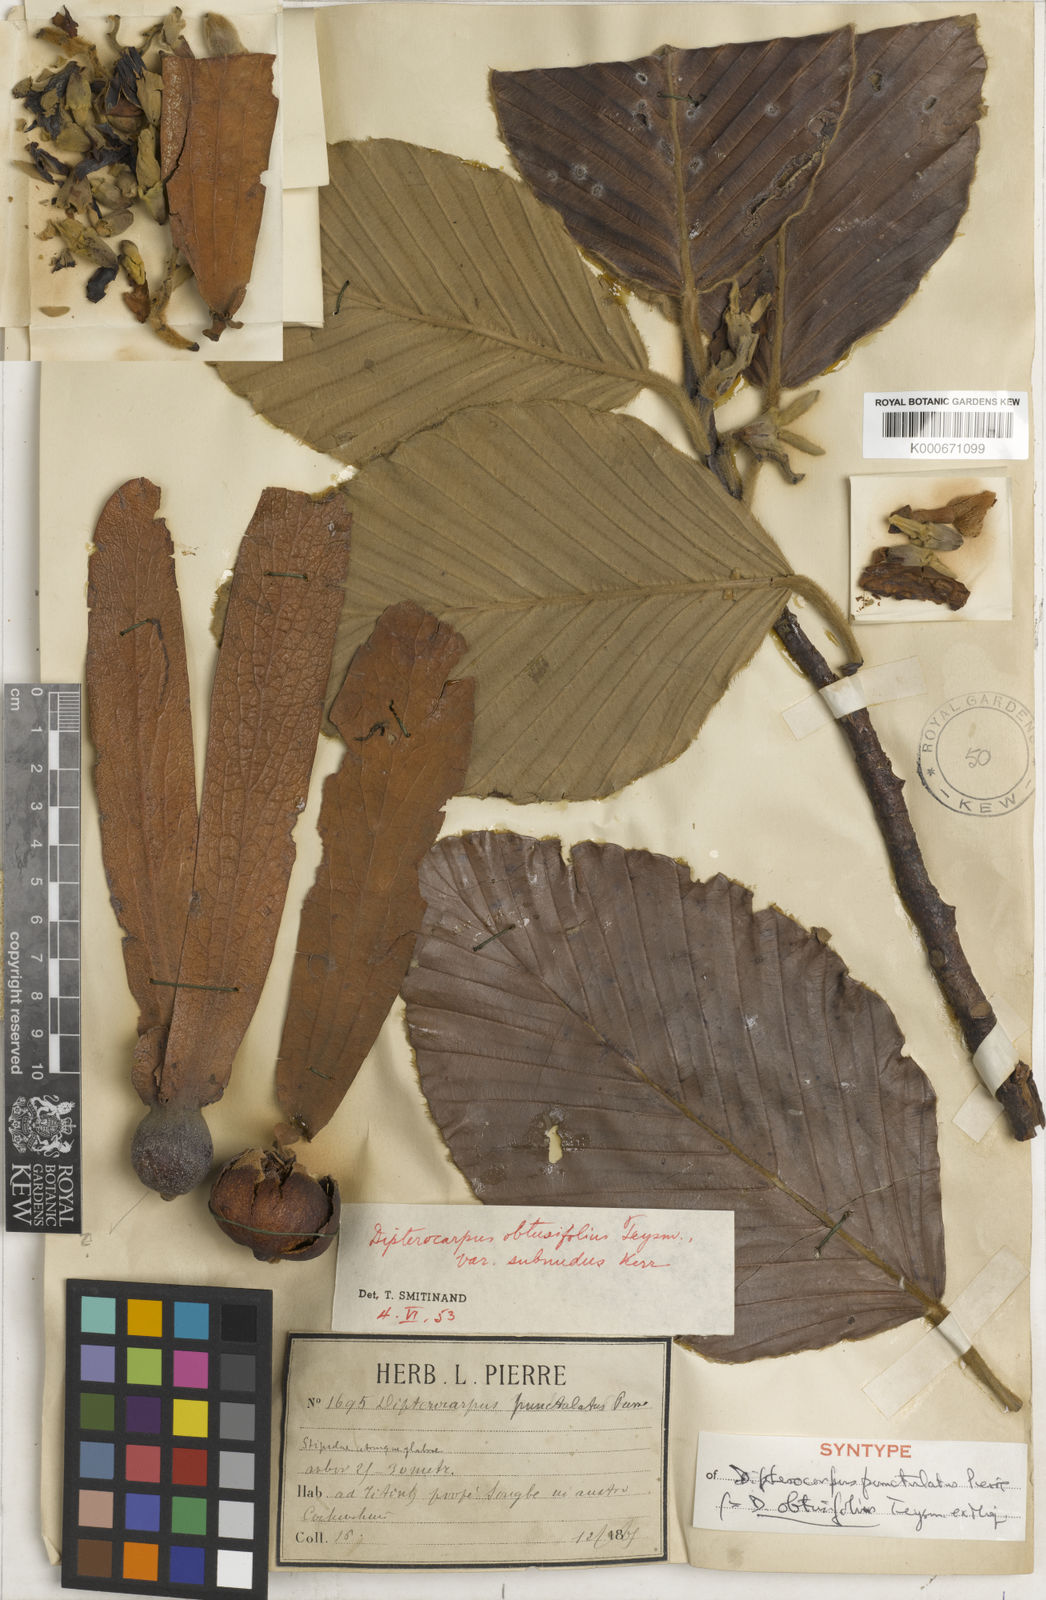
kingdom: Plantae
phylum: Tracheophyta
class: Magnoliopsida
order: Malvales
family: Dipterocarpaceae
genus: Dipterocarpus
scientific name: Dipterocarpus obtusifolius
